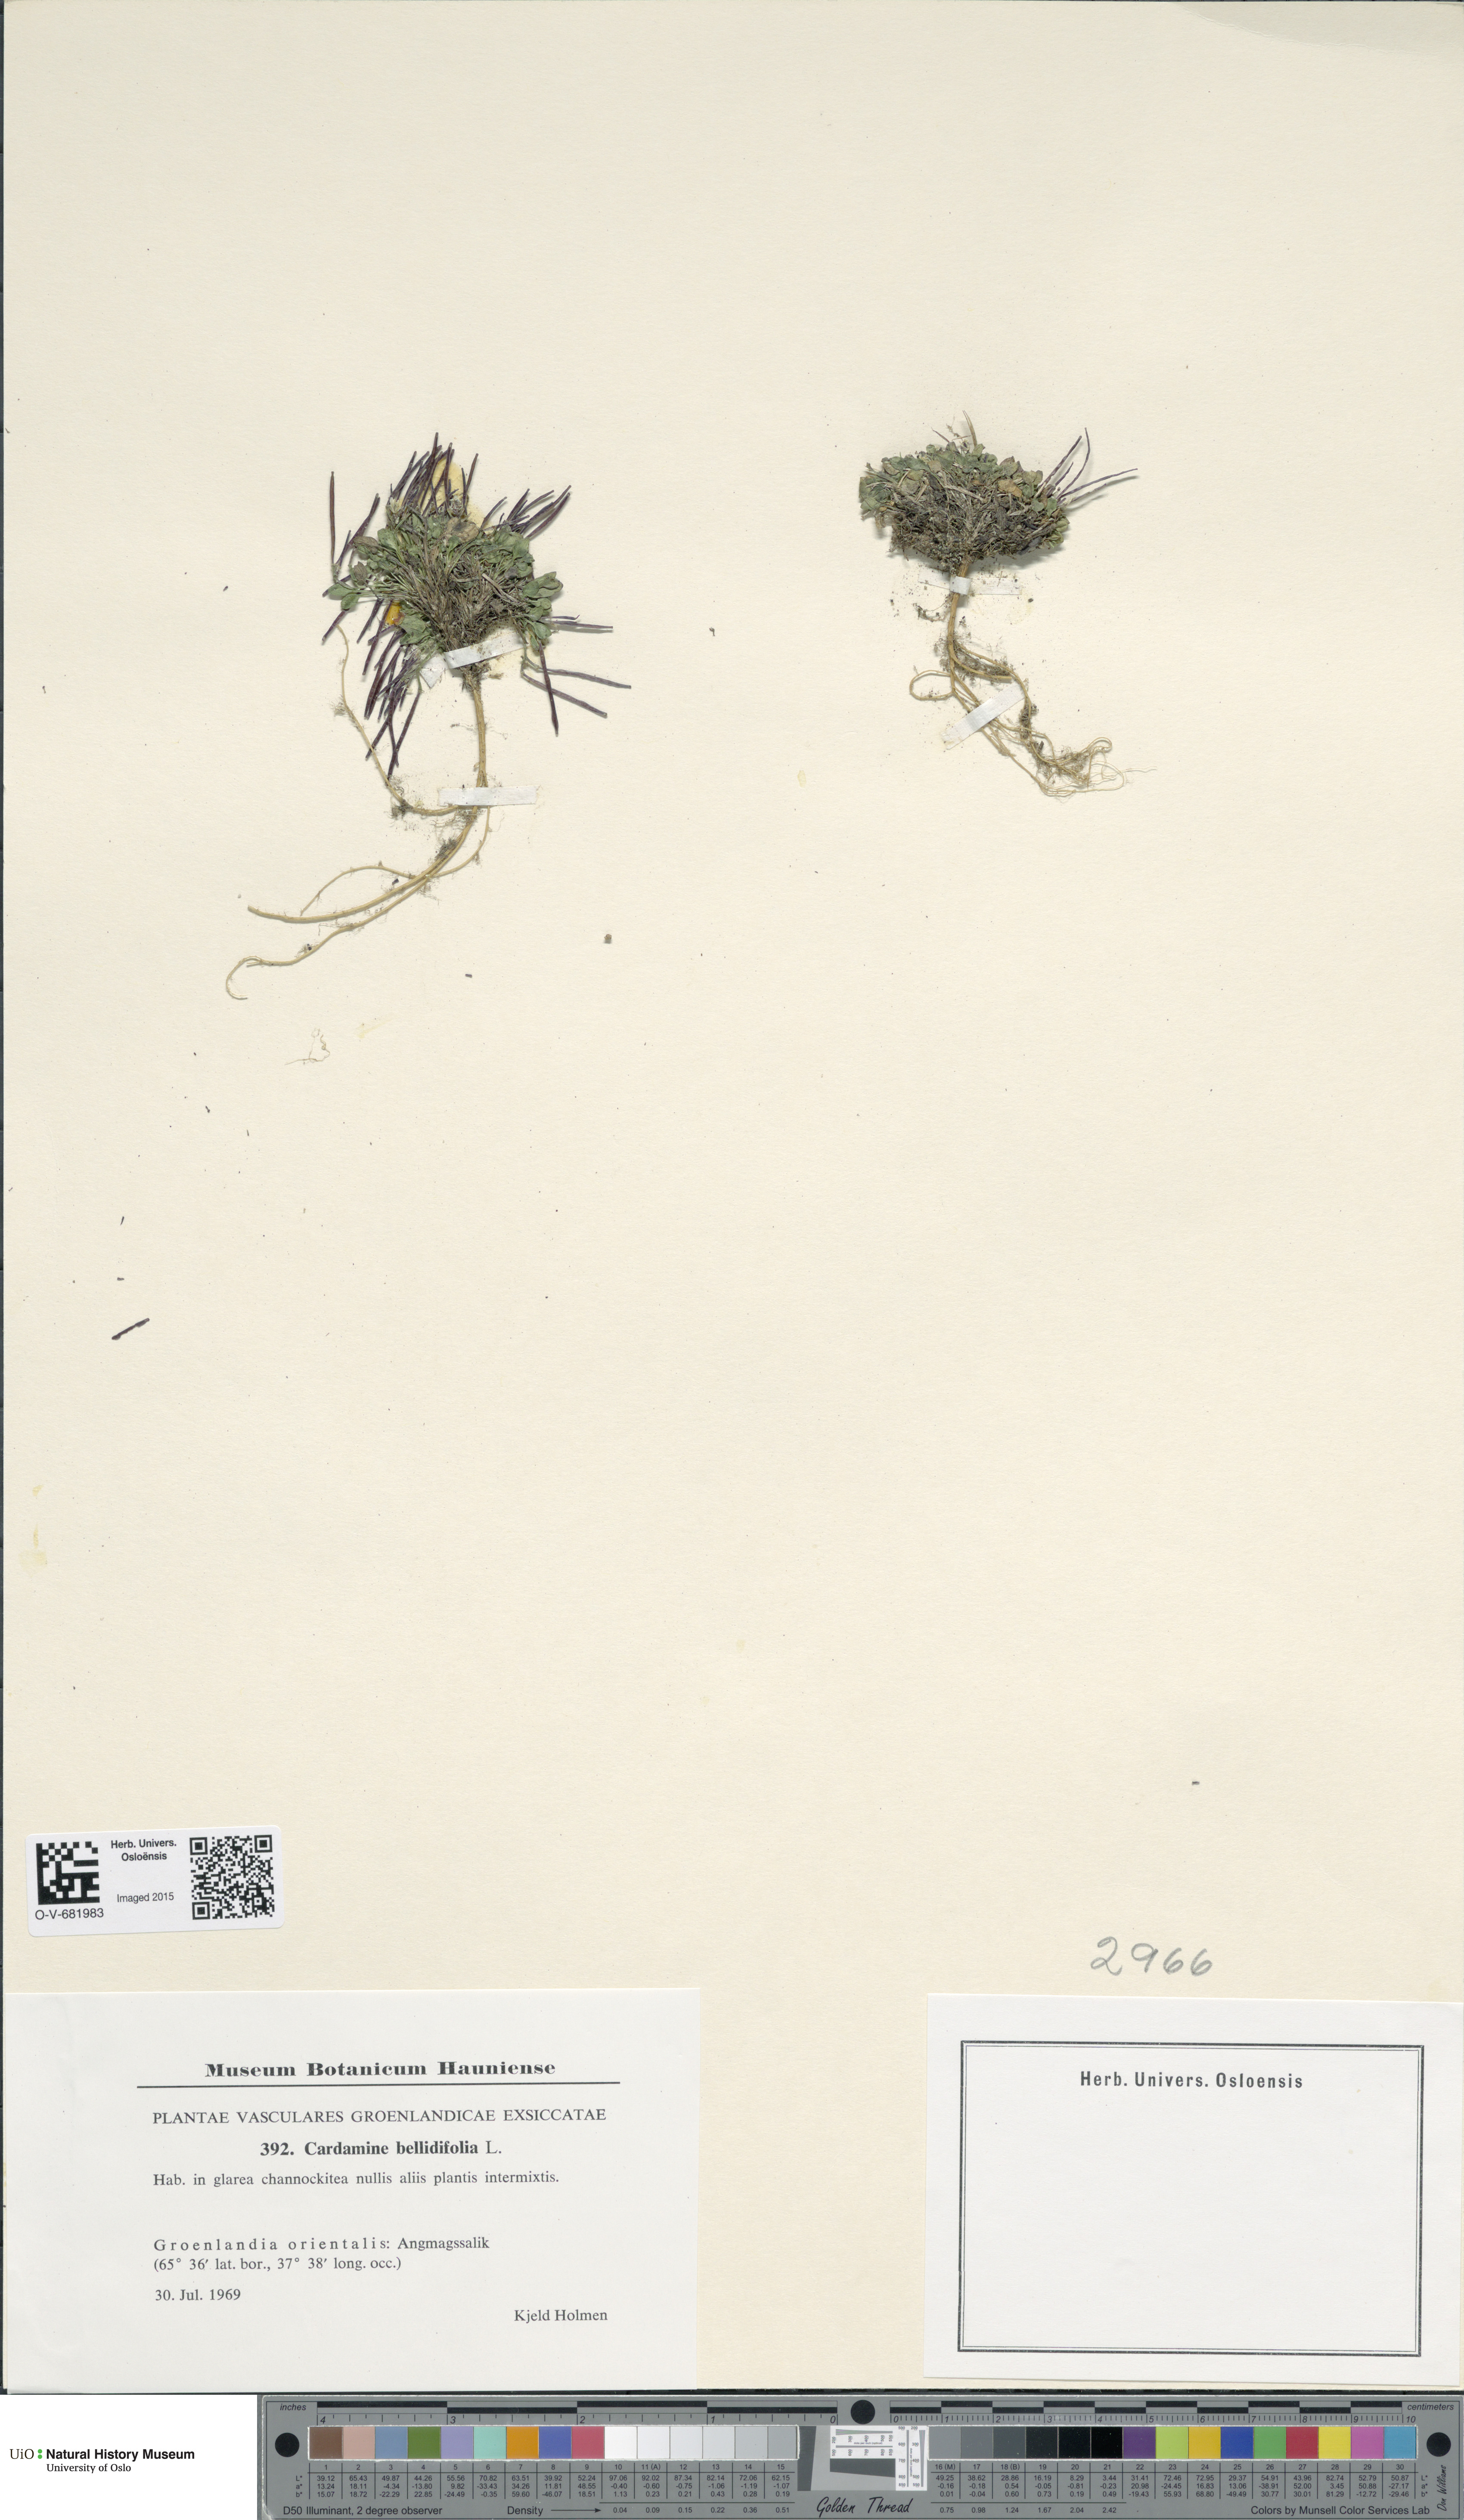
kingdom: Plantae
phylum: Tracheophyta
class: Magnoliopsida
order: Brassicales
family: Brassicaceae
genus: Cardamine
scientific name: Cardamine bellidifolia
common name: Alpine bittercress
